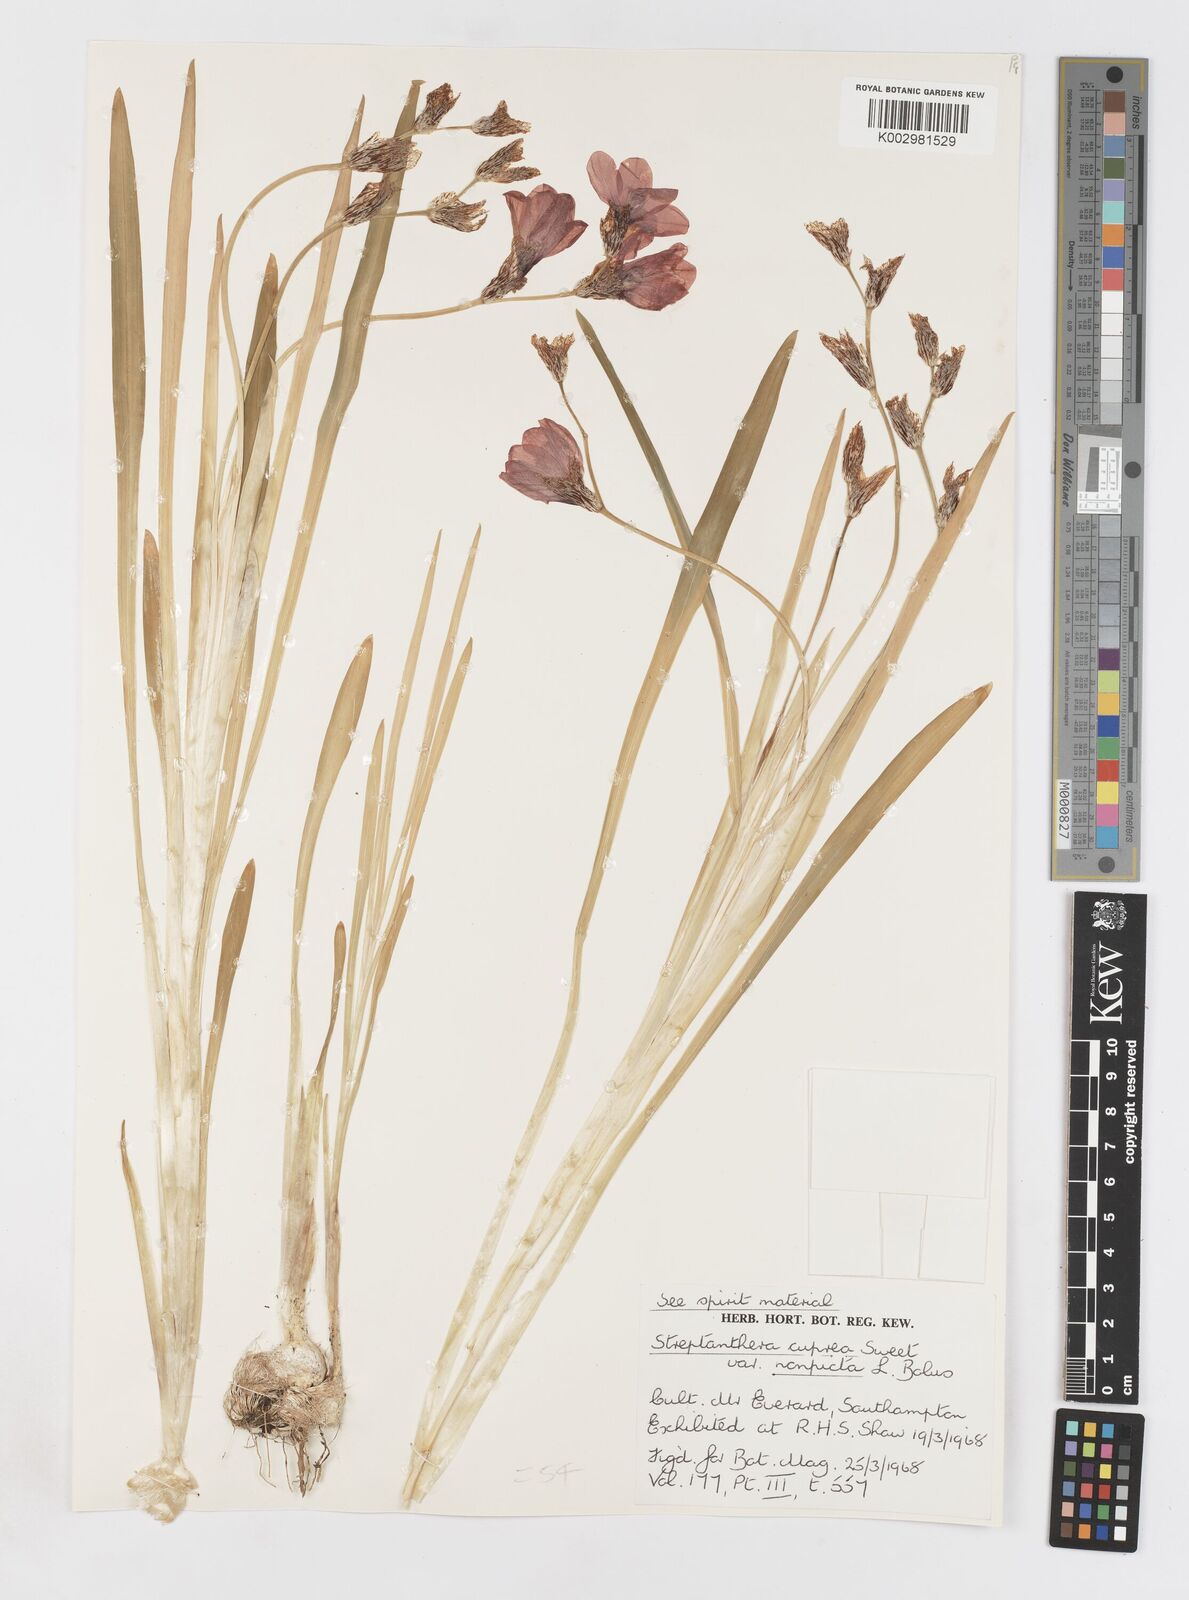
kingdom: Plantae
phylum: Tracheophyta
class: Liliopsida
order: Asparagales
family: Iridaceae
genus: Sparaxis
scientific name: Sparaxis
